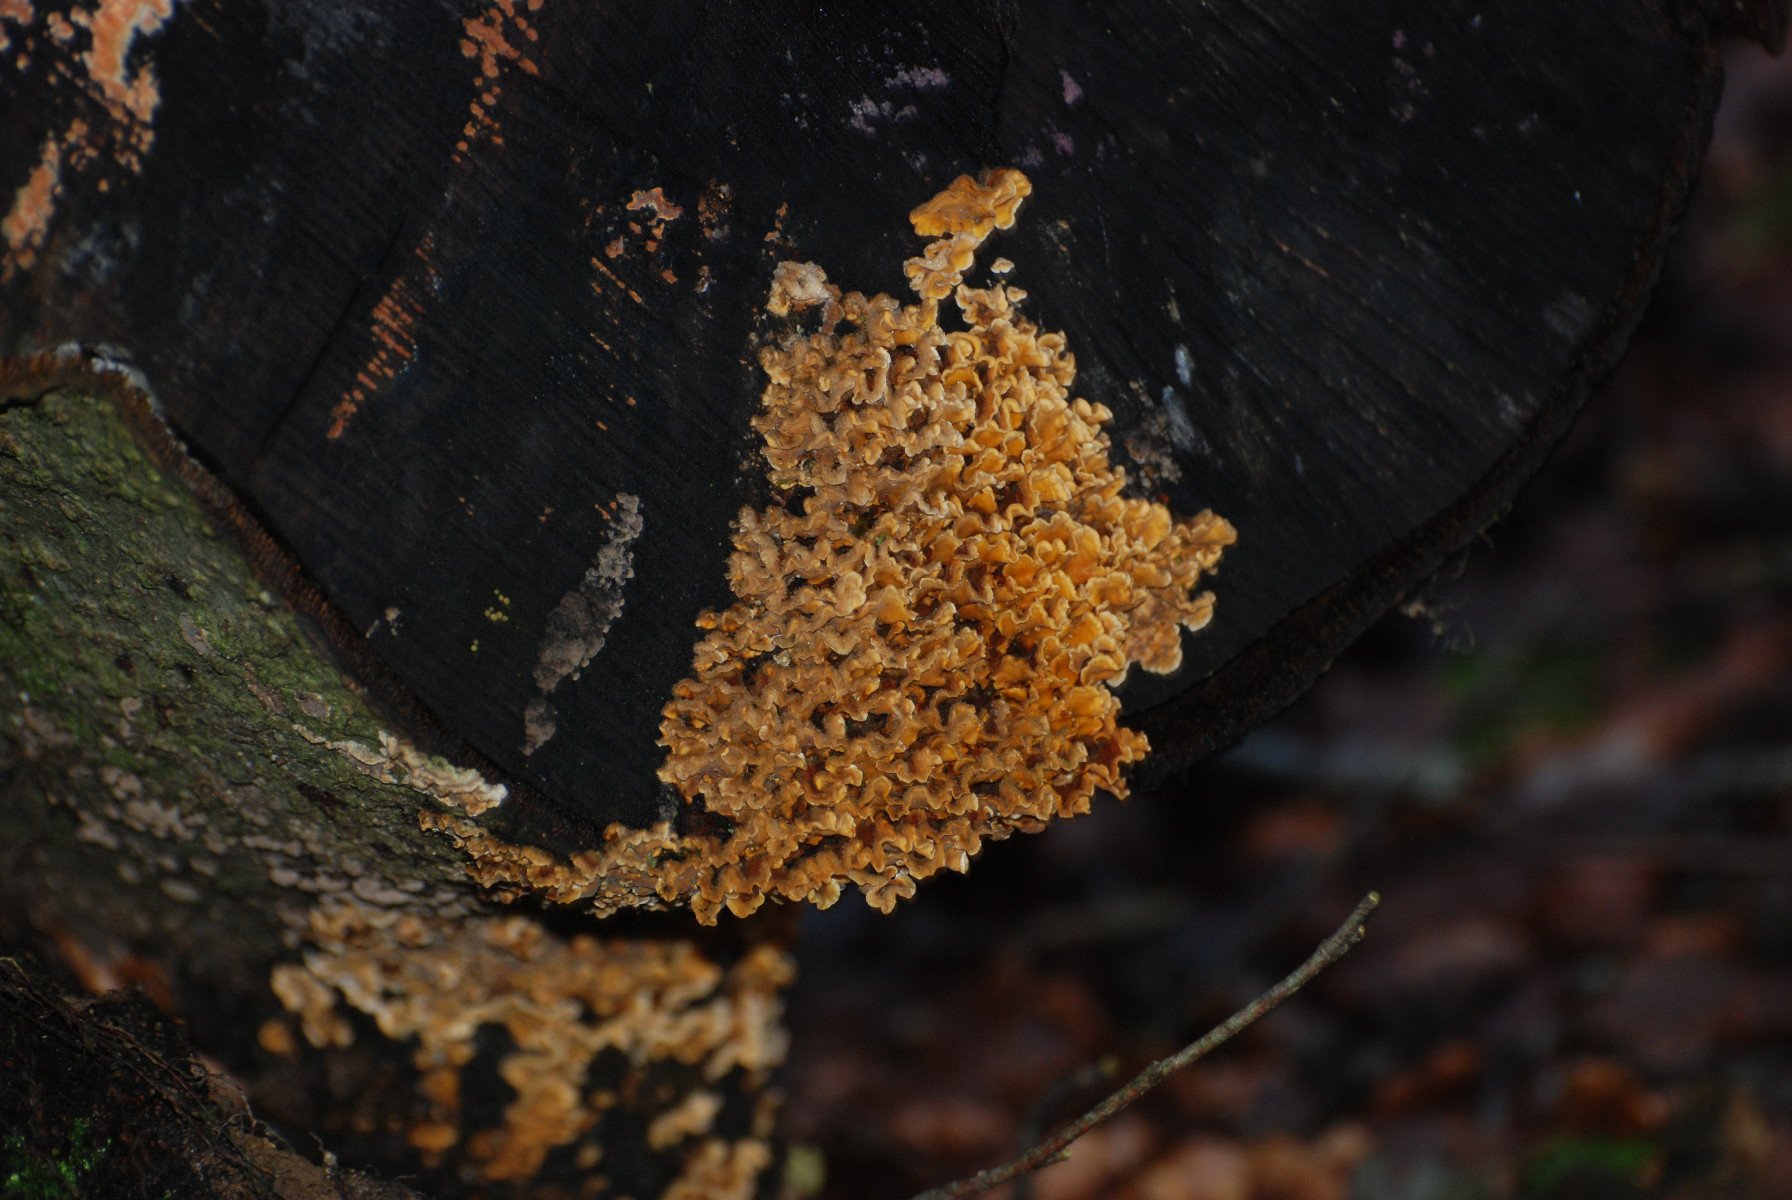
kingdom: Fungi
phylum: Basidiomycota
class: Agaricomycetes
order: Russulales
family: Stereaceae
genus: Stereum
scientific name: Stereum hirsutum
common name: håret lædersvamp
